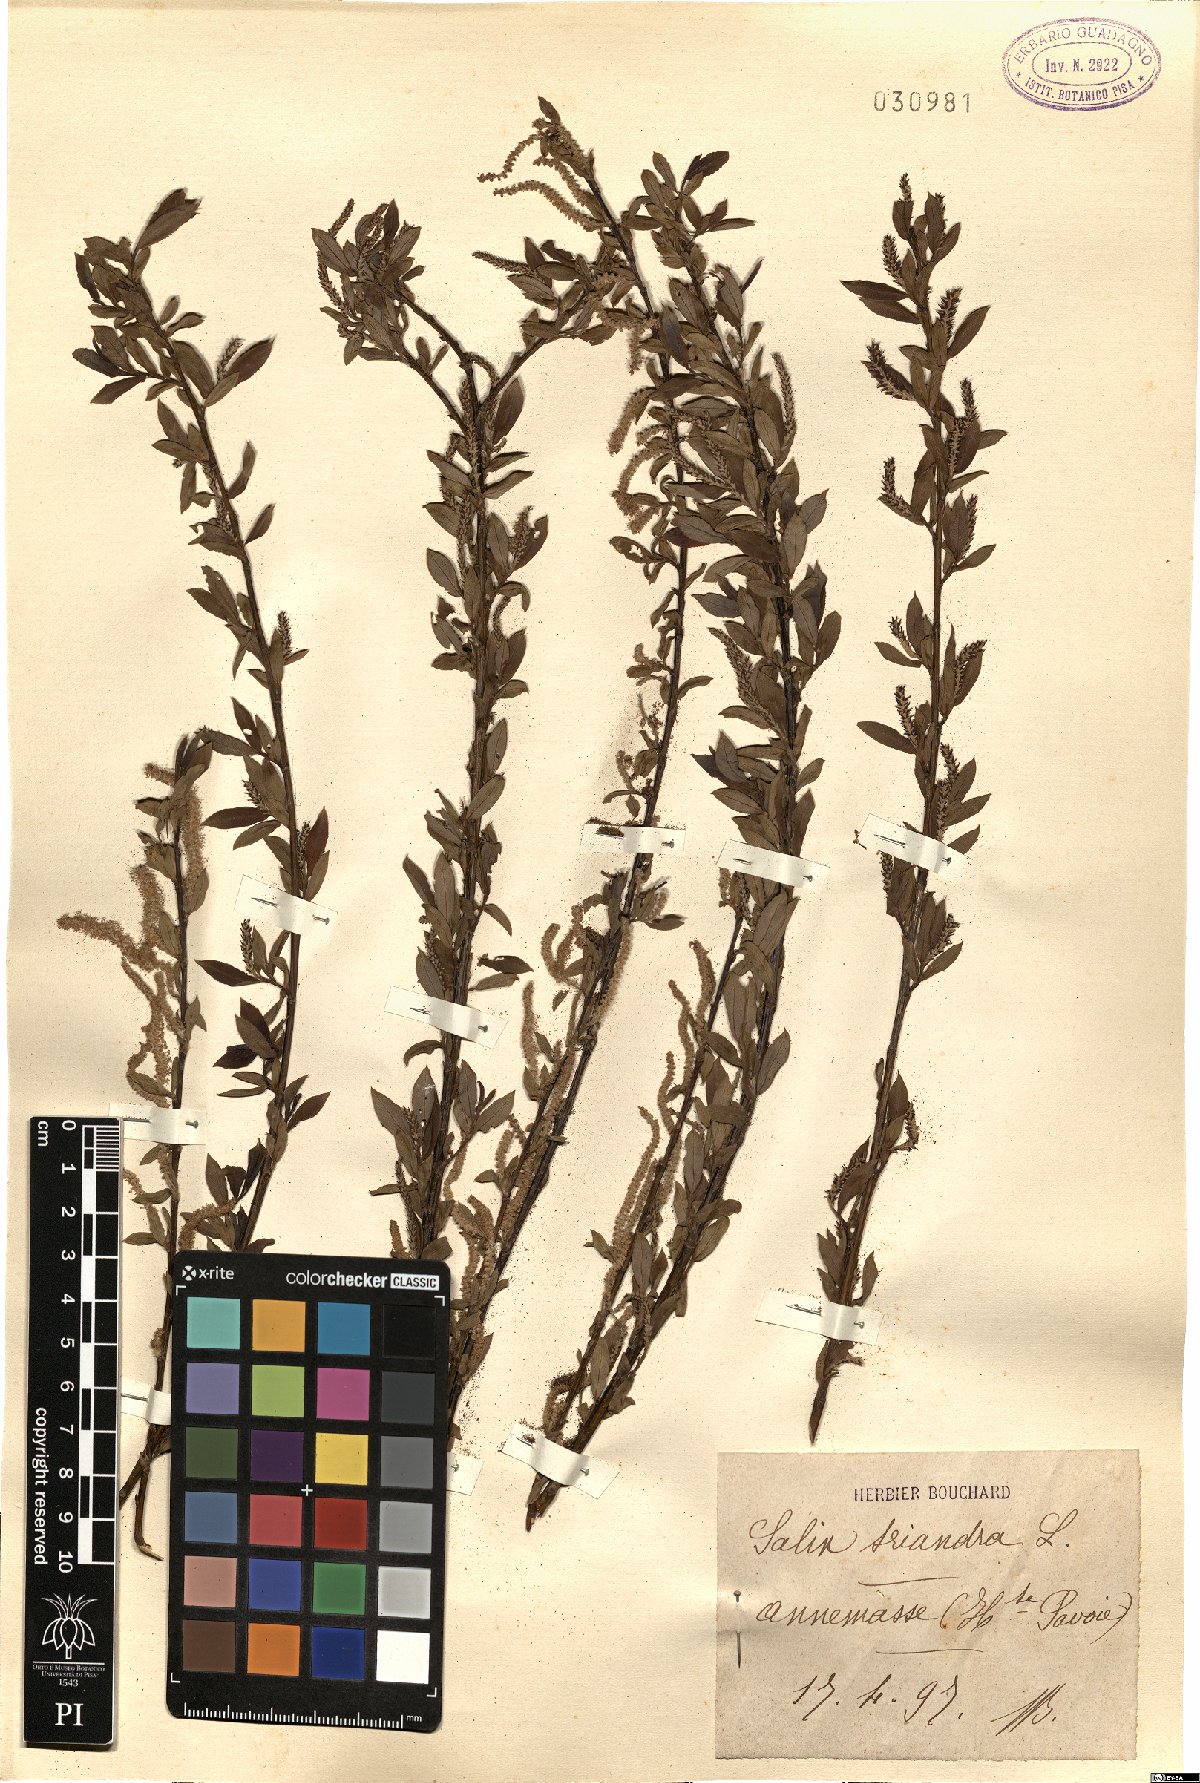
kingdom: Plantae
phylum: Tracheophyta
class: Magnoliopsida
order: Malpighiales
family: Salicaceae
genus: Salix
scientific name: Salix triandra
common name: Almond willow
